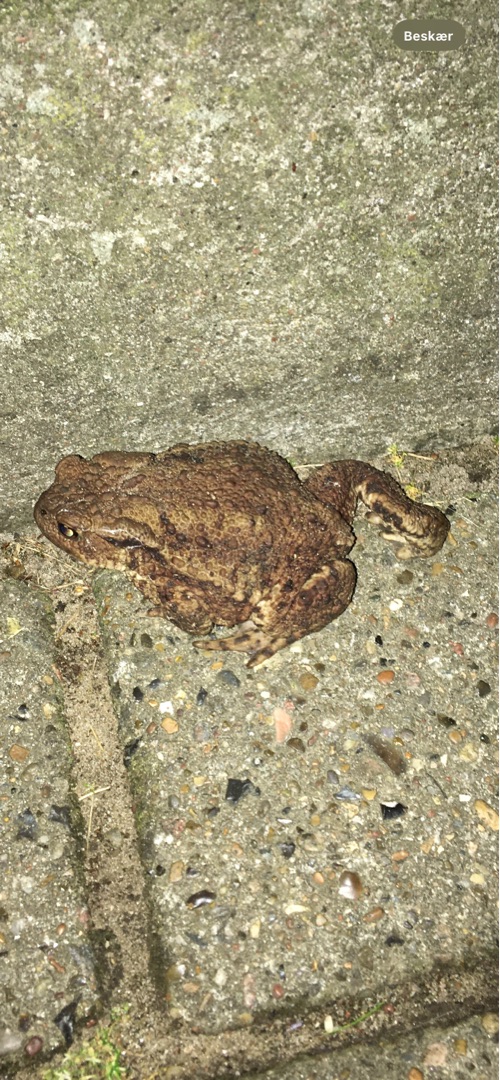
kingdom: Animalia
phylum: Chordata
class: Amphibia
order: Anura
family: Bufonidae
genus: Bufo
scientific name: Bufo bufo
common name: Skrubtudse
